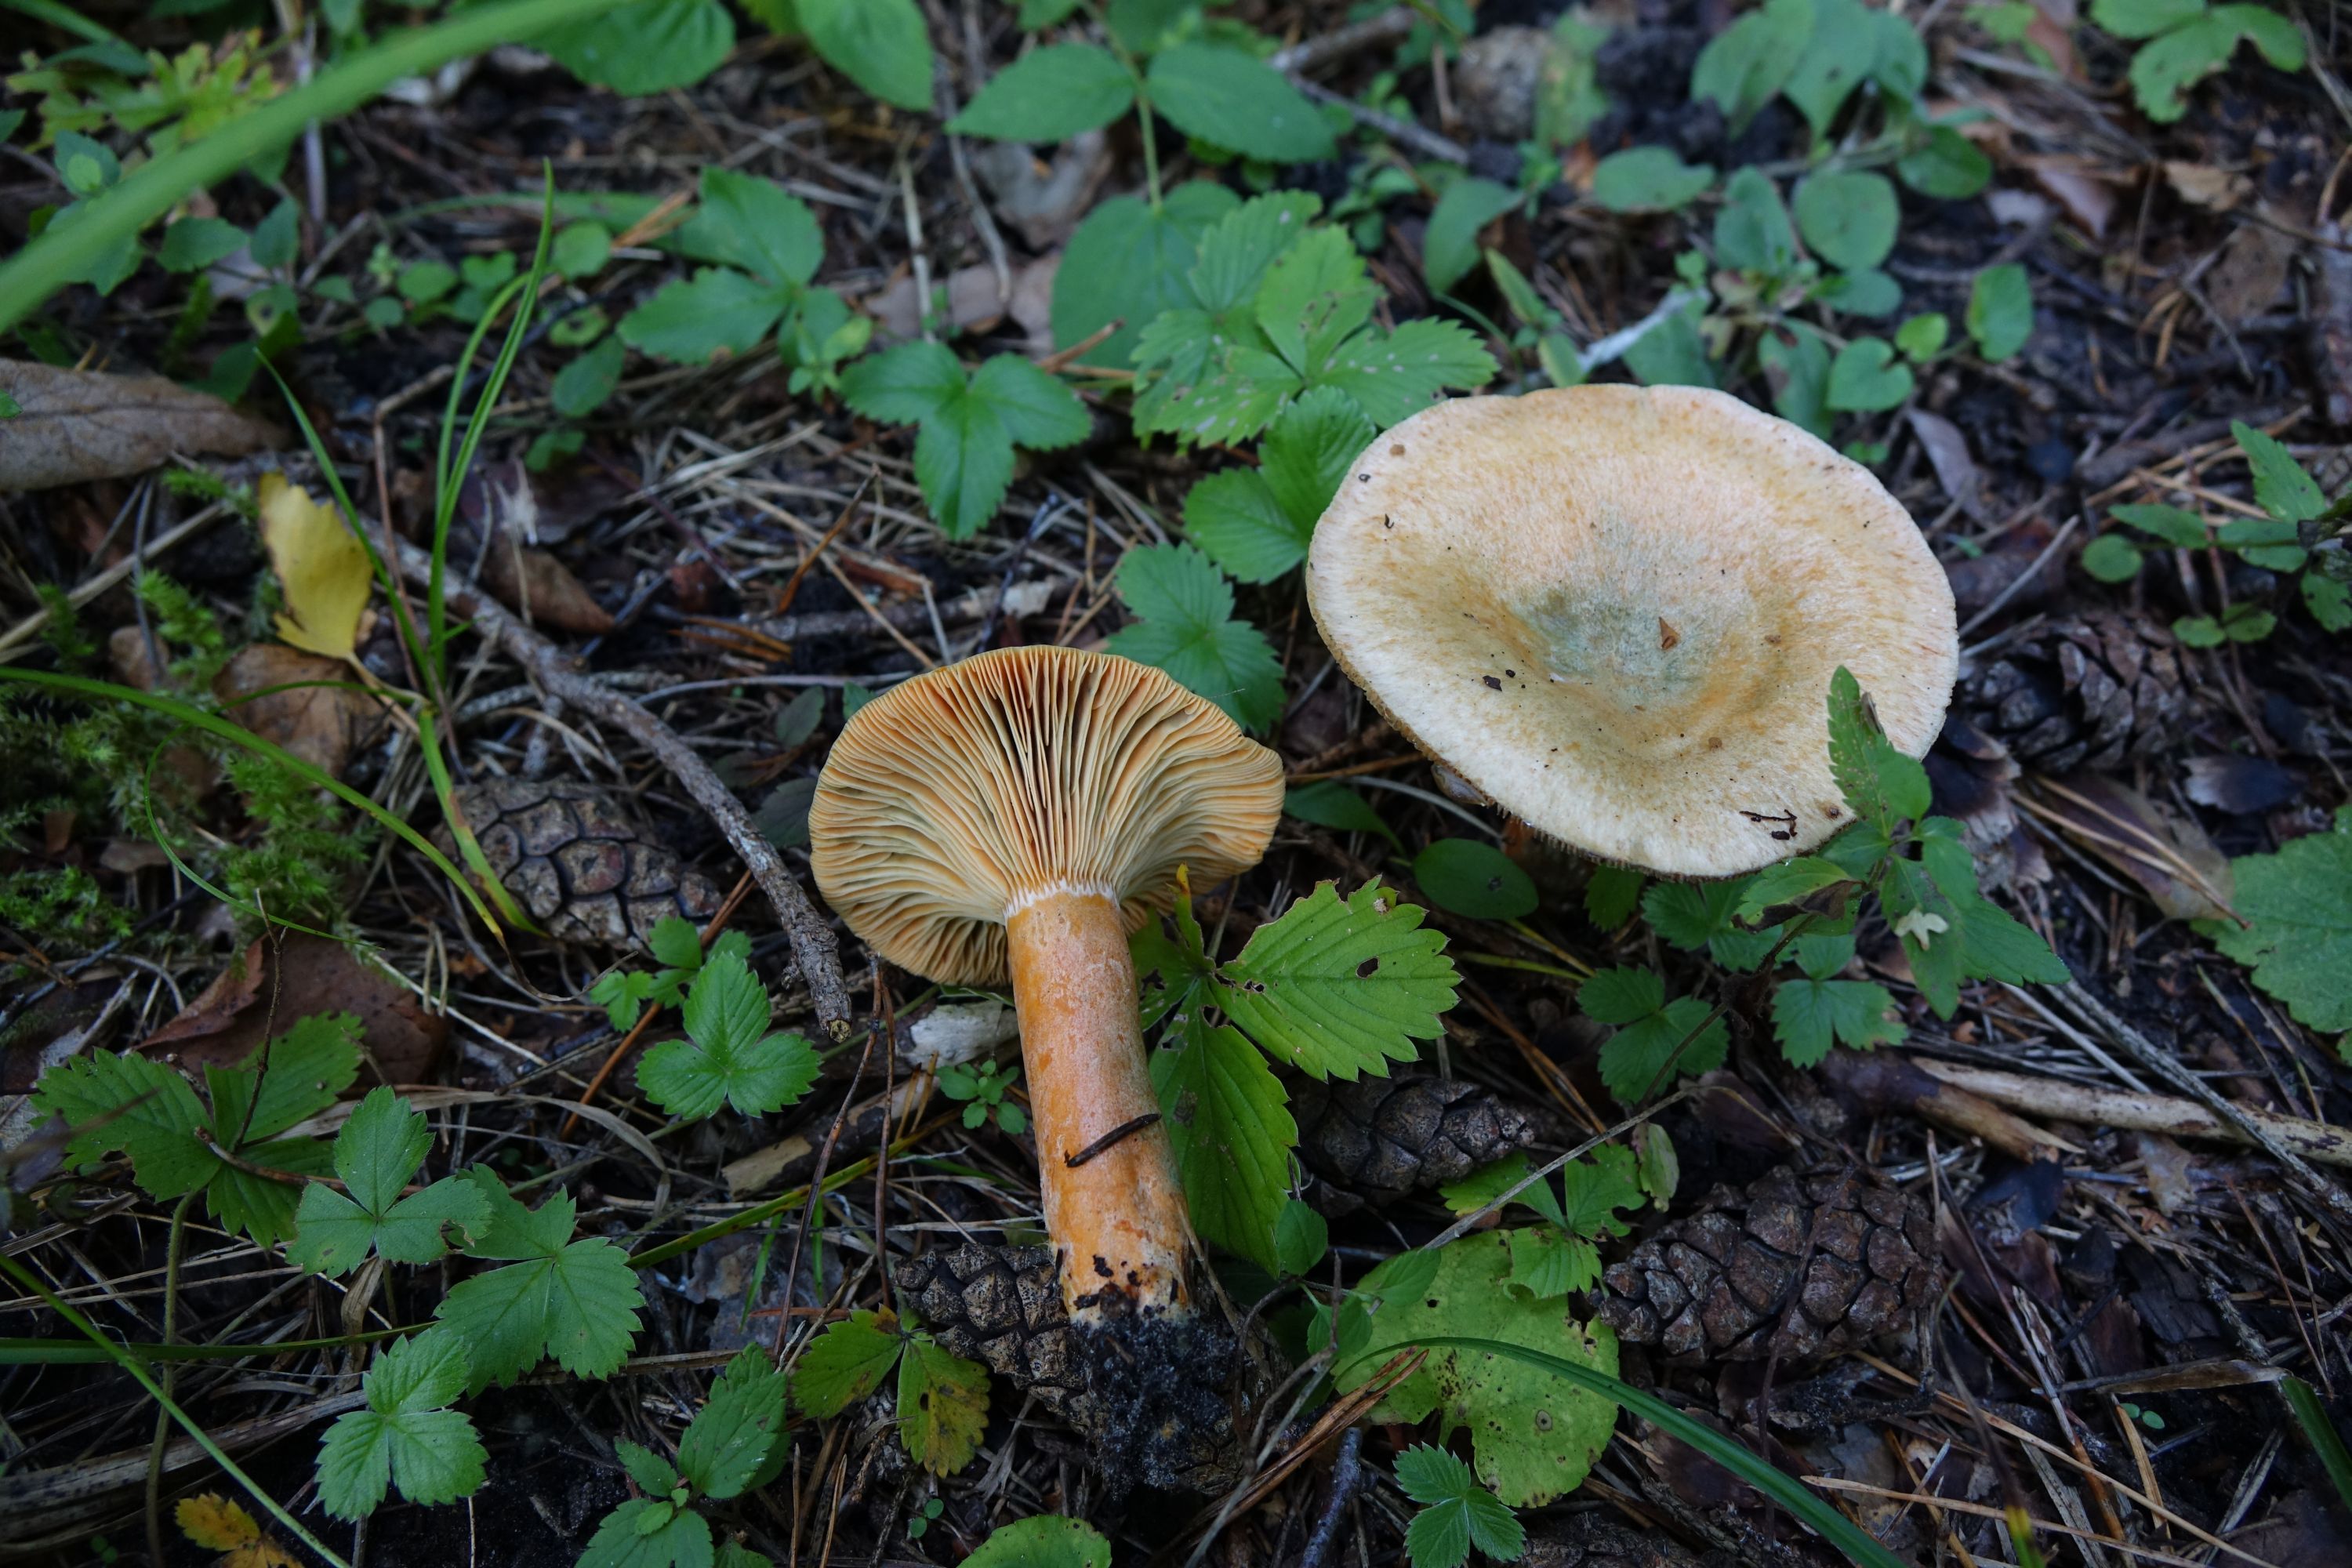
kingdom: Fungi
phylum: Basidiomycota
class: Agaricomycetes
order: Russulales
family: Russulaceae
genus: Lactarius
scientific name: Lactarius deterrimus
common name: False saffron milkcap
